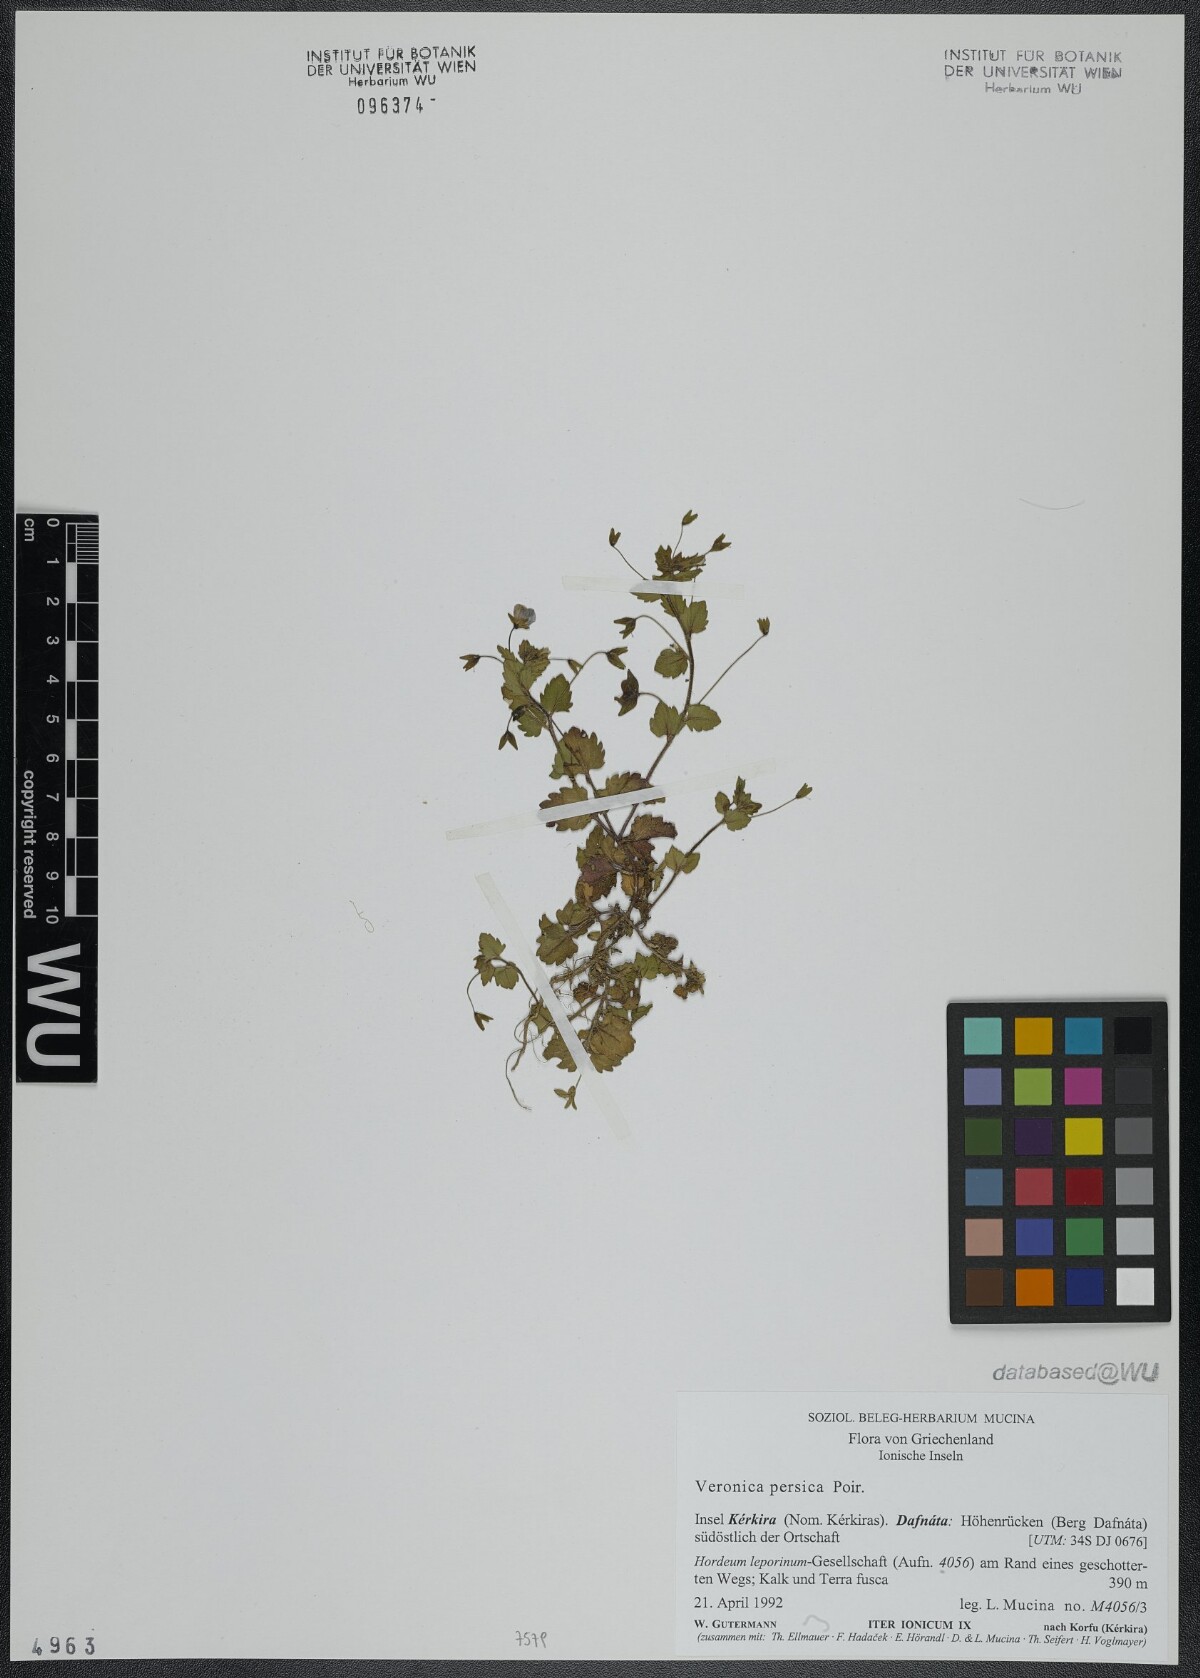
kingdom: Plantae
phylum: Tracheophyta
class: Magnoliopsida
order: Lamiales
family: Plantaginaceae
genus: Veronica
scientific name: Veronica persica
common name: Common field-speedwell
